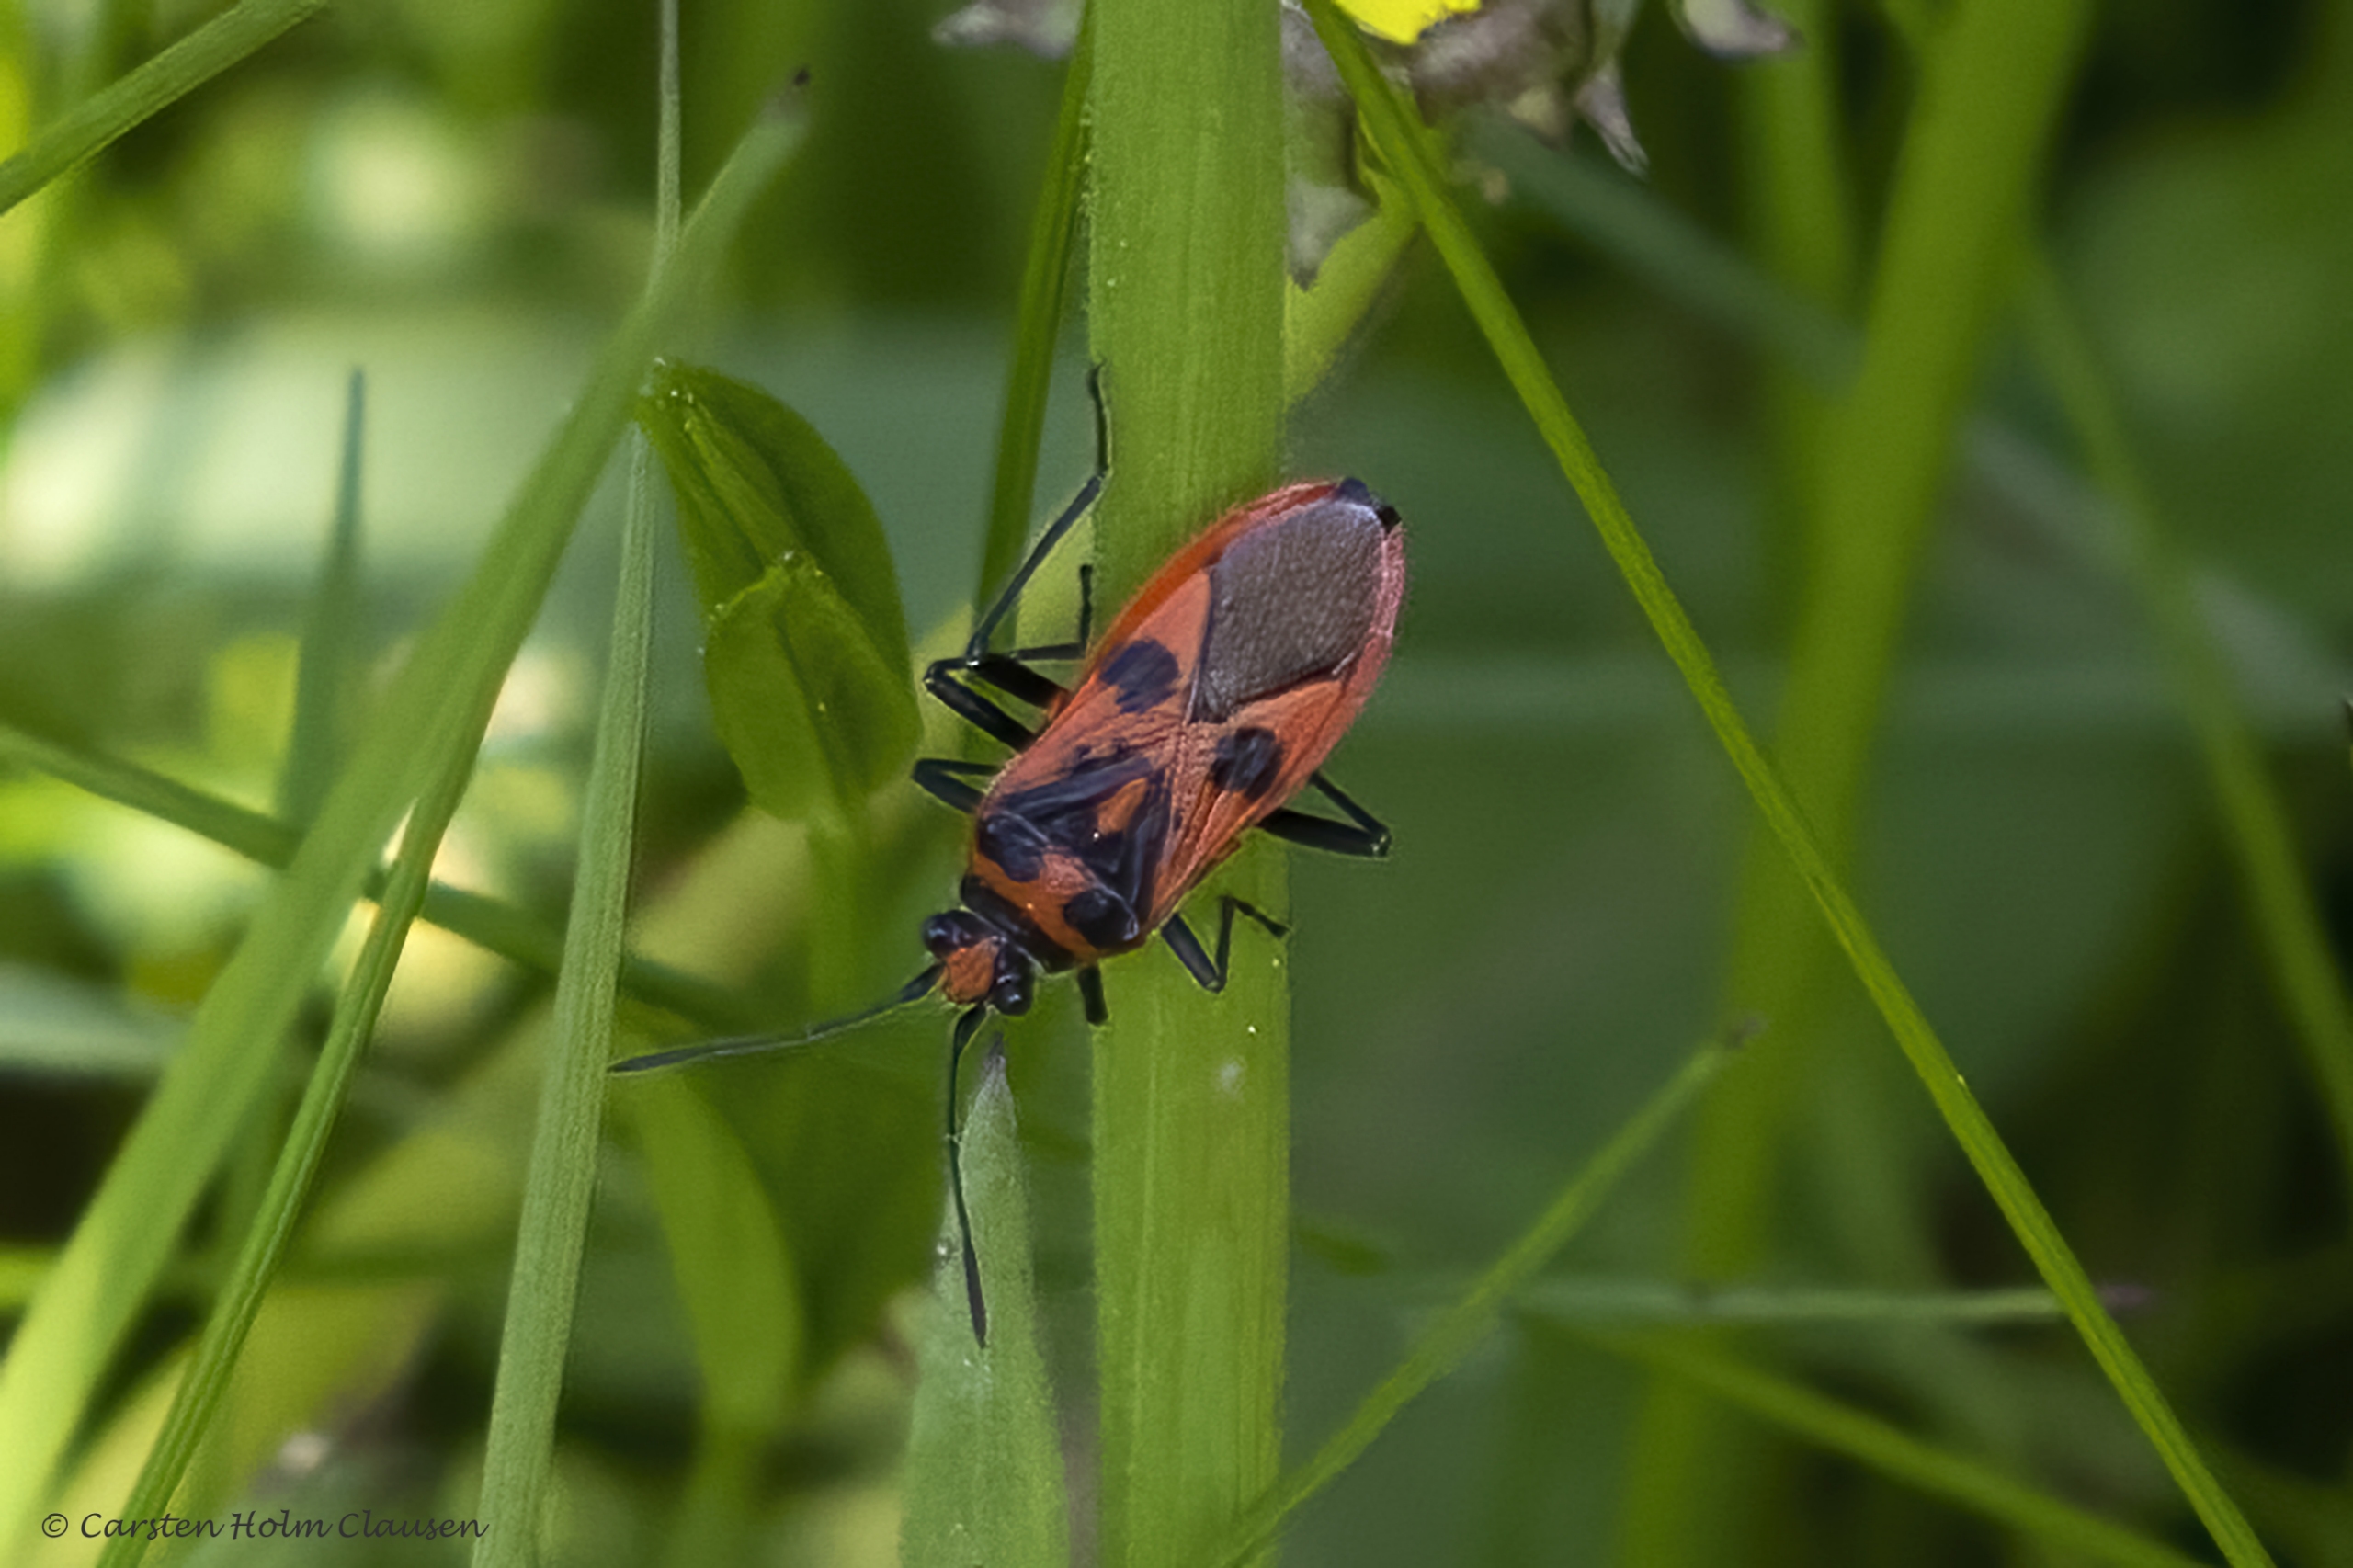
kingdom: Animalia
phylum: Arthropoda
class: Insecta
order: Hemiptera
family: Rhopalidae
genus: Corizus
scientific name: Corizus hyoscyami
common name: Rød kanttæge
